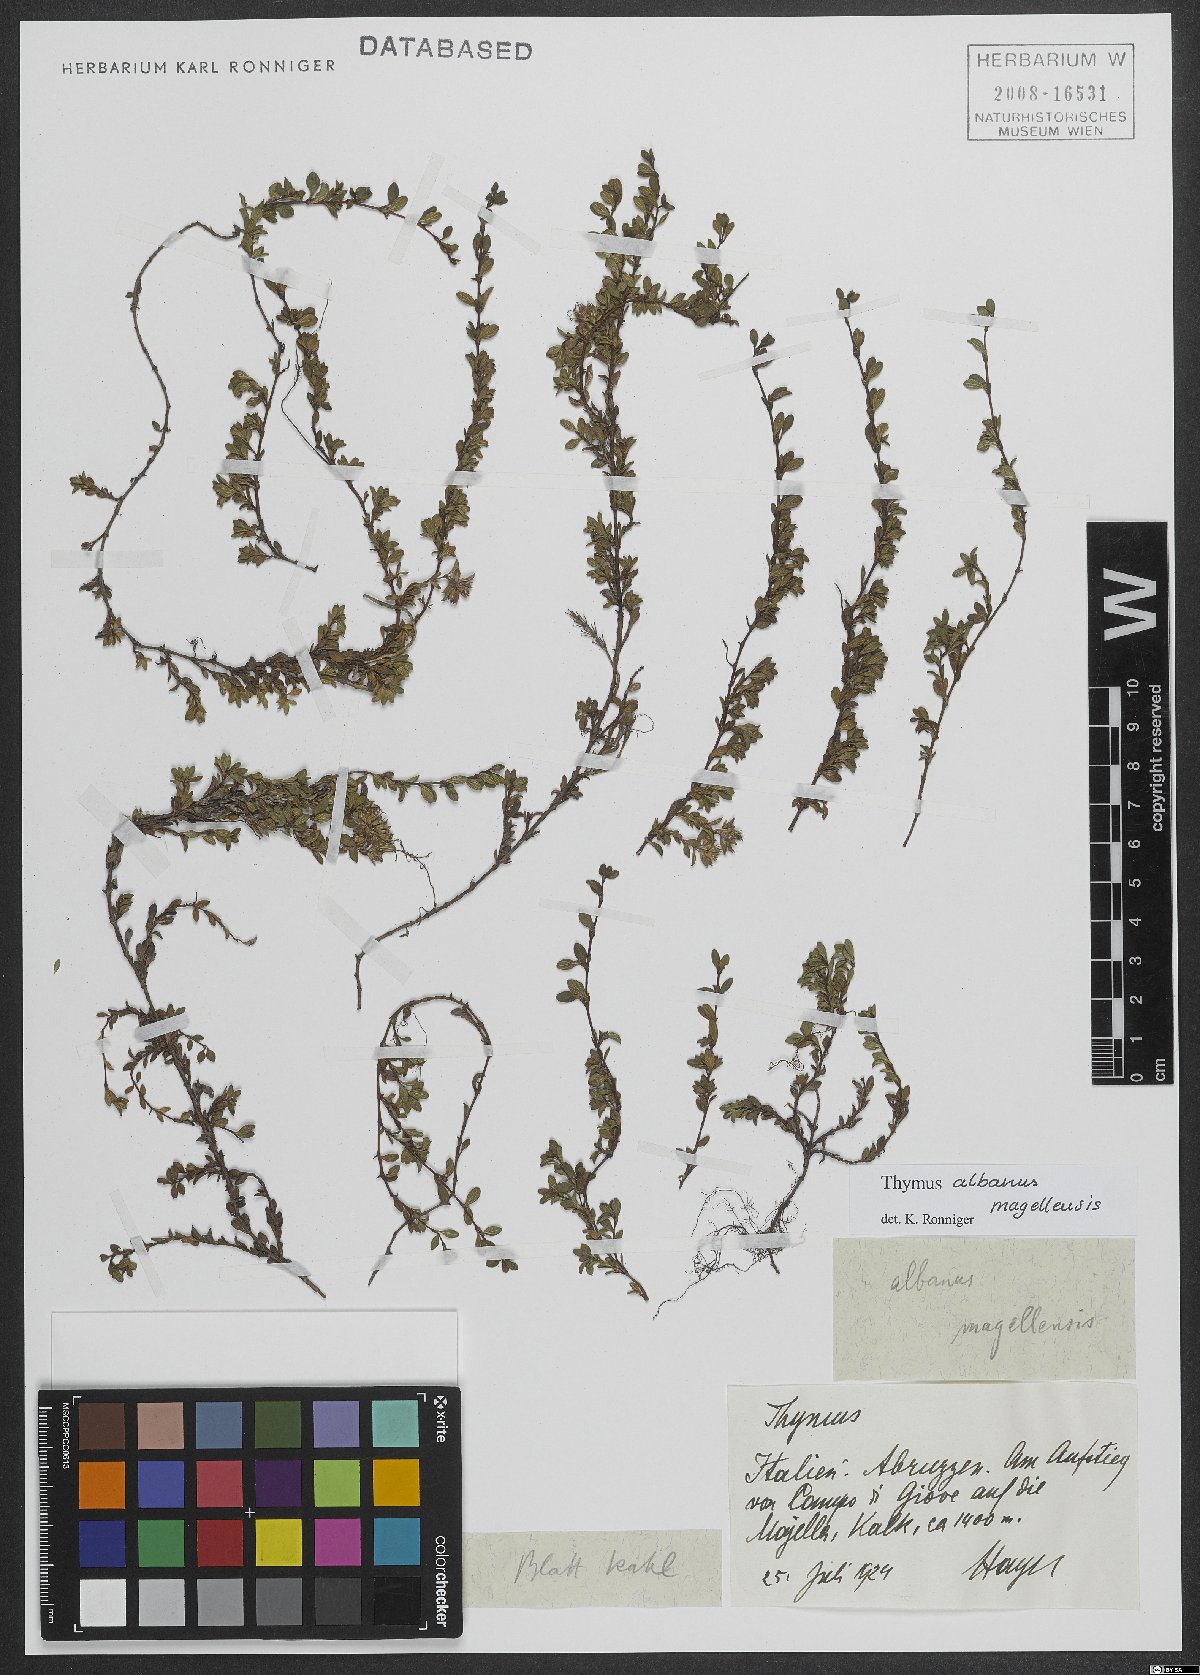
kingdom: Plantae
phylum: Tracheophyta
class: Magnoliopsida
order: Lamiales
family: Lamiaceae
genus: Thymus
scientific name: Thymus zygiformis
